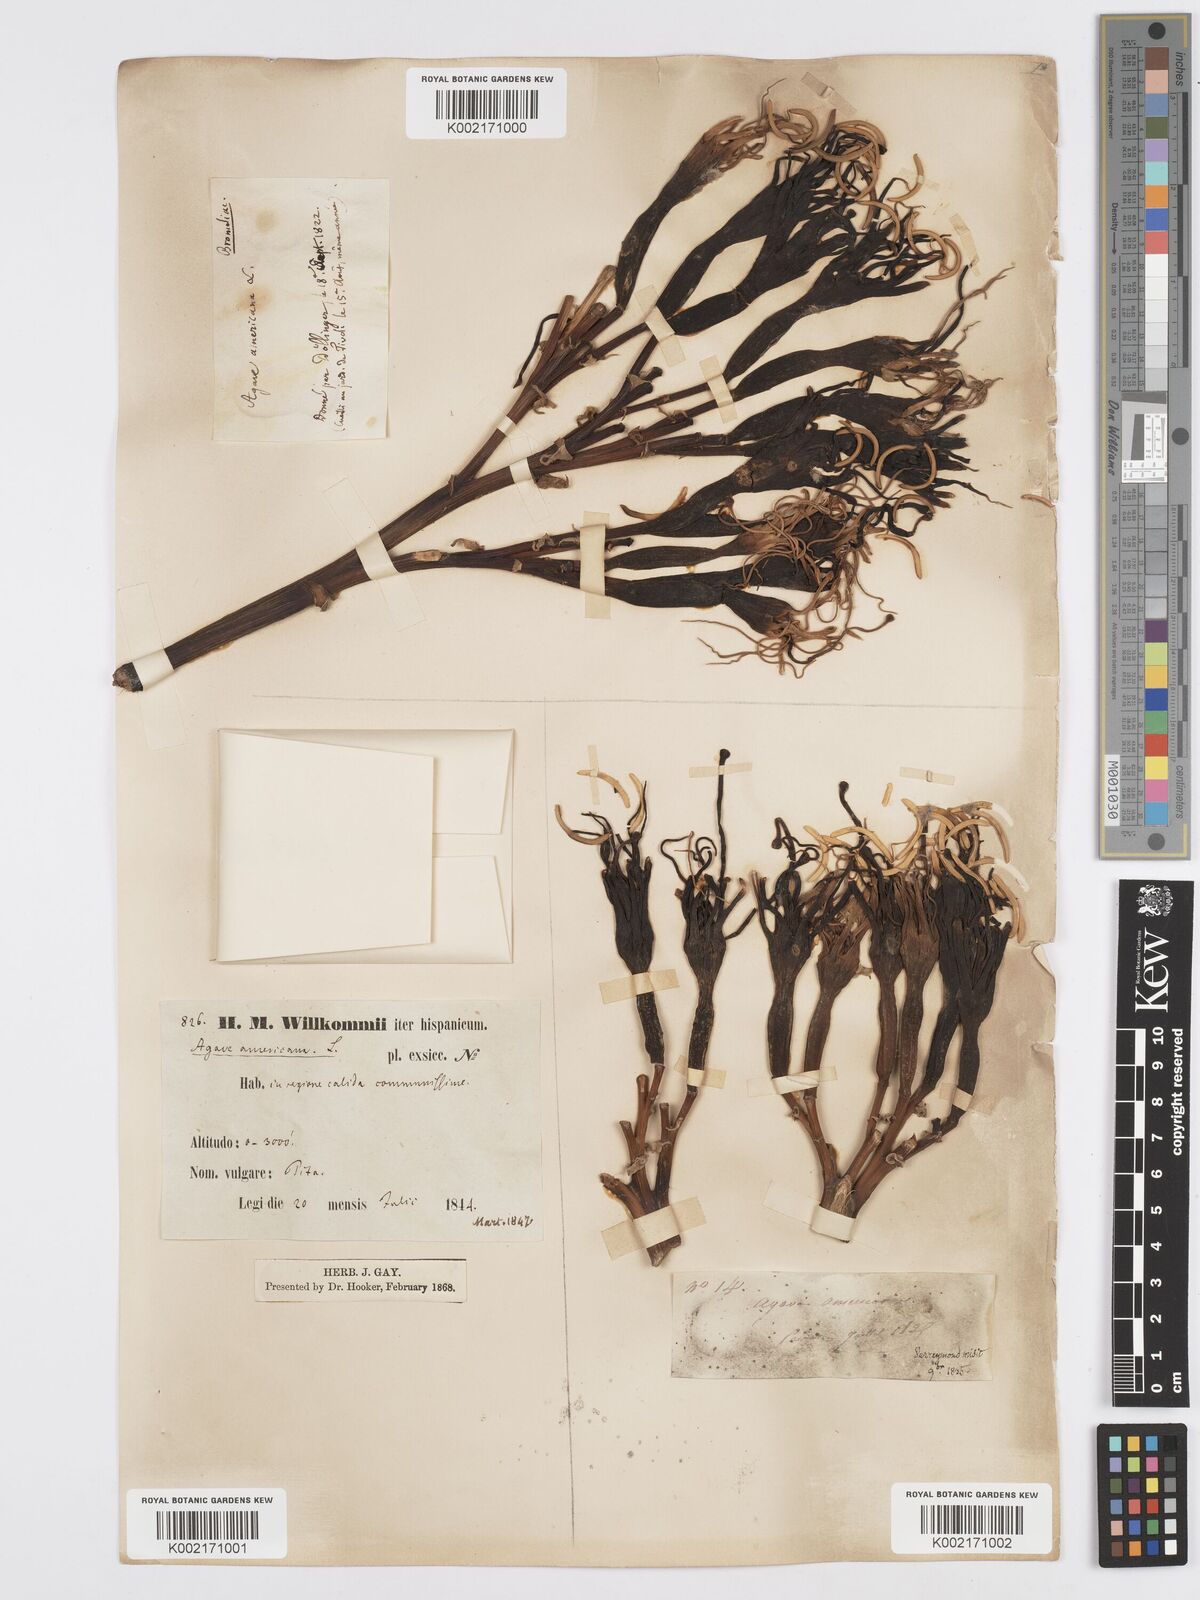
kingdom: Plantae
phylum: Tracheophyta
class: Liliopsida
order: Asparagales
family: Asparagaceae
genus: Agave
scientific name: Agave americana
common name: Centuryplant
